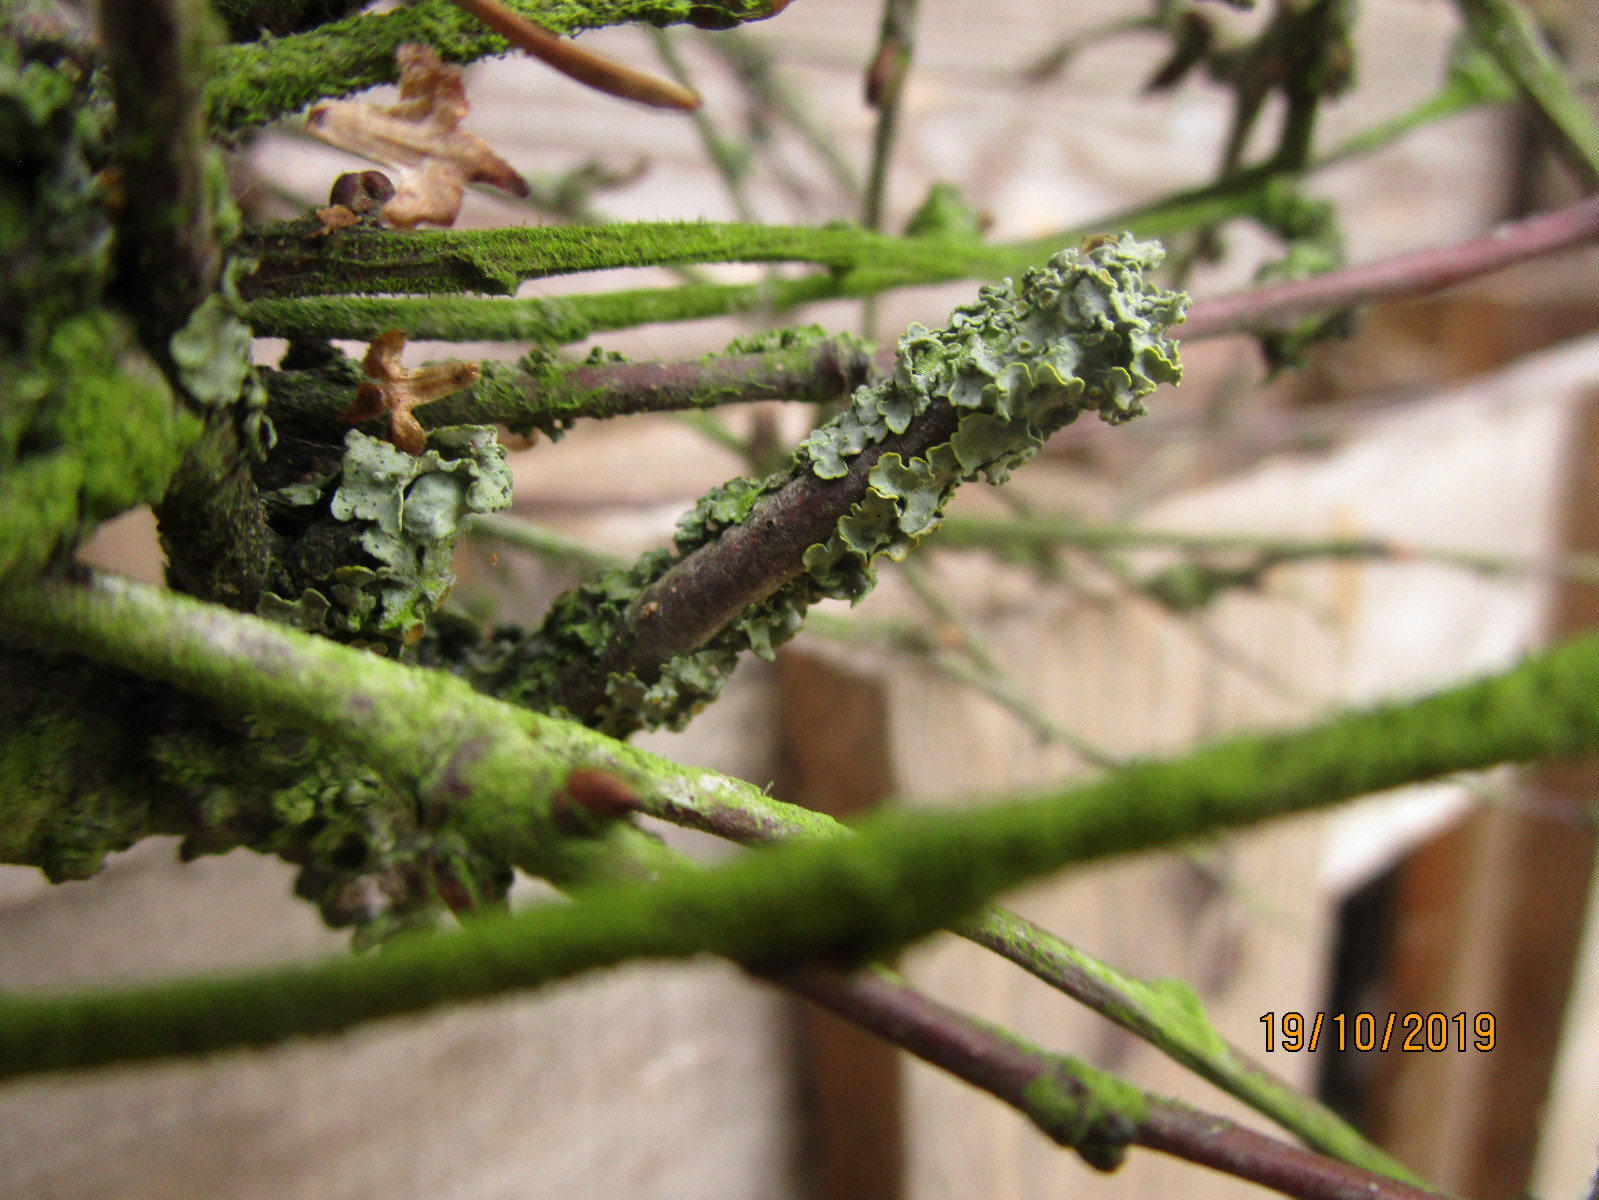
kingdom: Fungi
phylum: Ascomycota
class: Lecanoromycetes
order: Teloschistales
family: Teloschistaceae
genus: Xanthoria
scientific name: Xanthoria parietina
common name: almindelig væggelav
